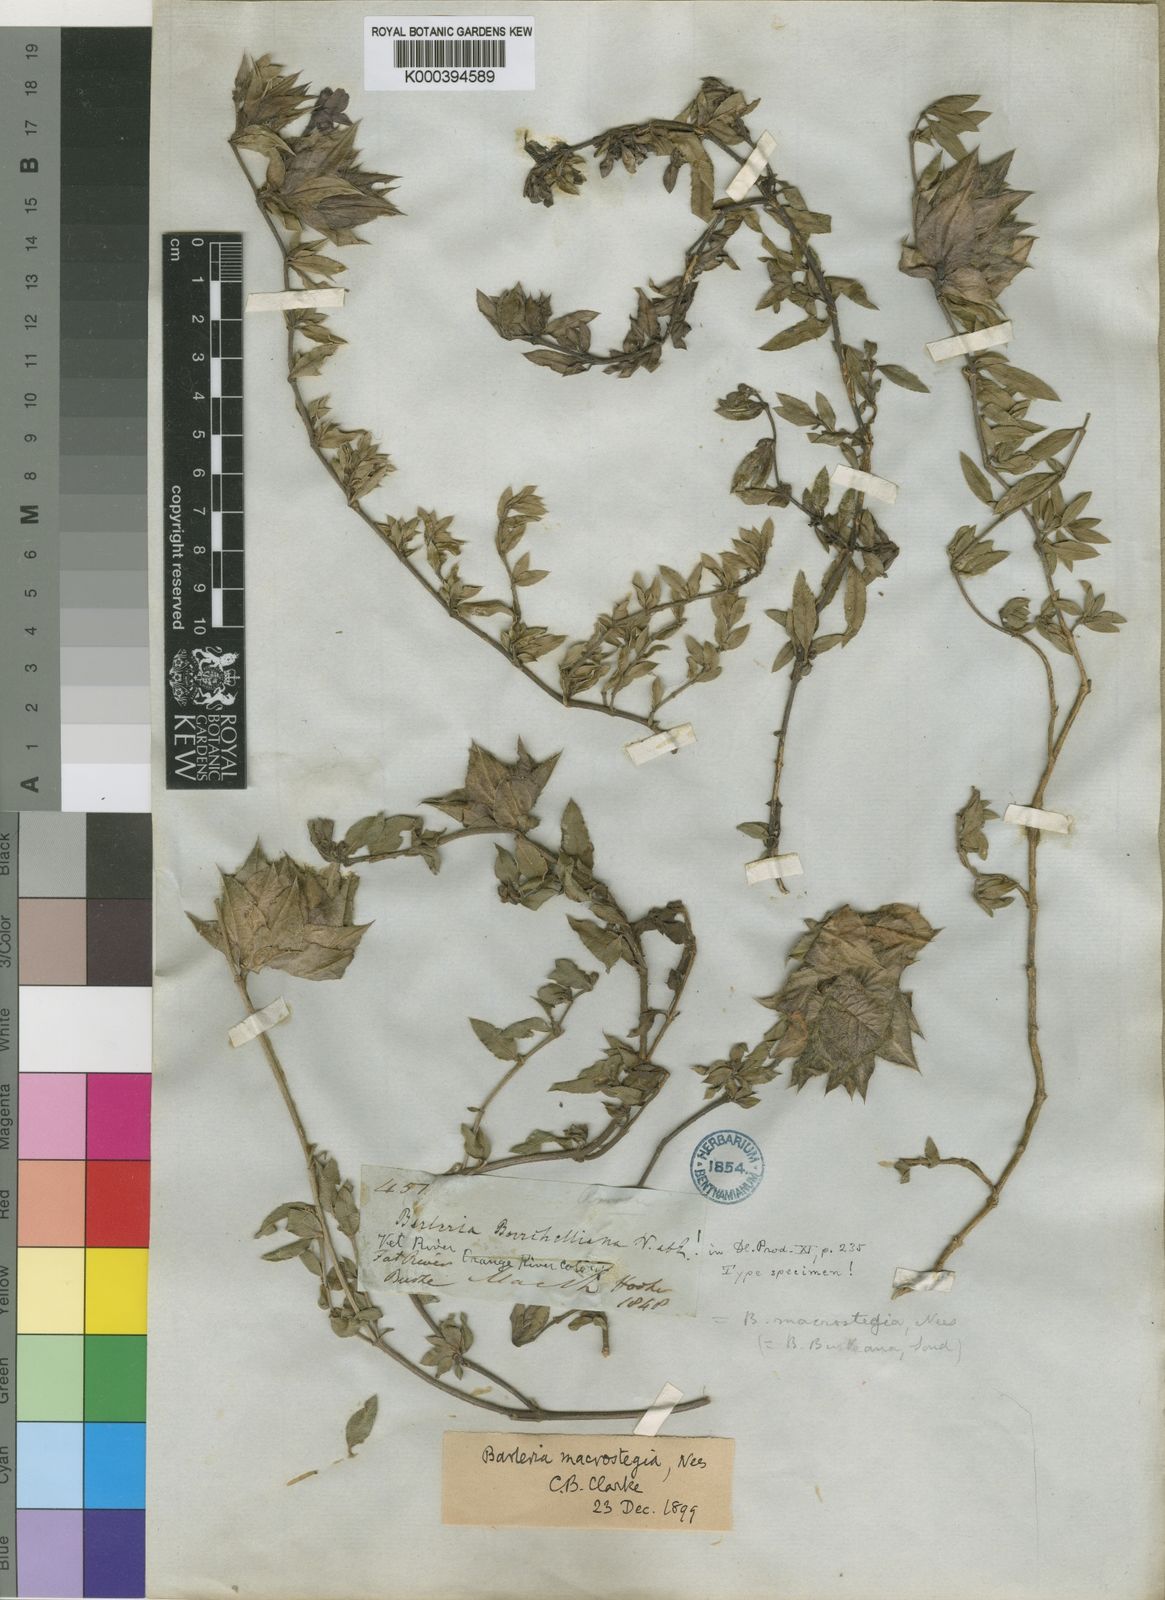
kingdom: Plantae
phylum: Tracheophyta
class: Magnoliopsida
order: Lamiales
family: Acanthaceae
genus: Barleria
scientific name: Barleria macrostegia
